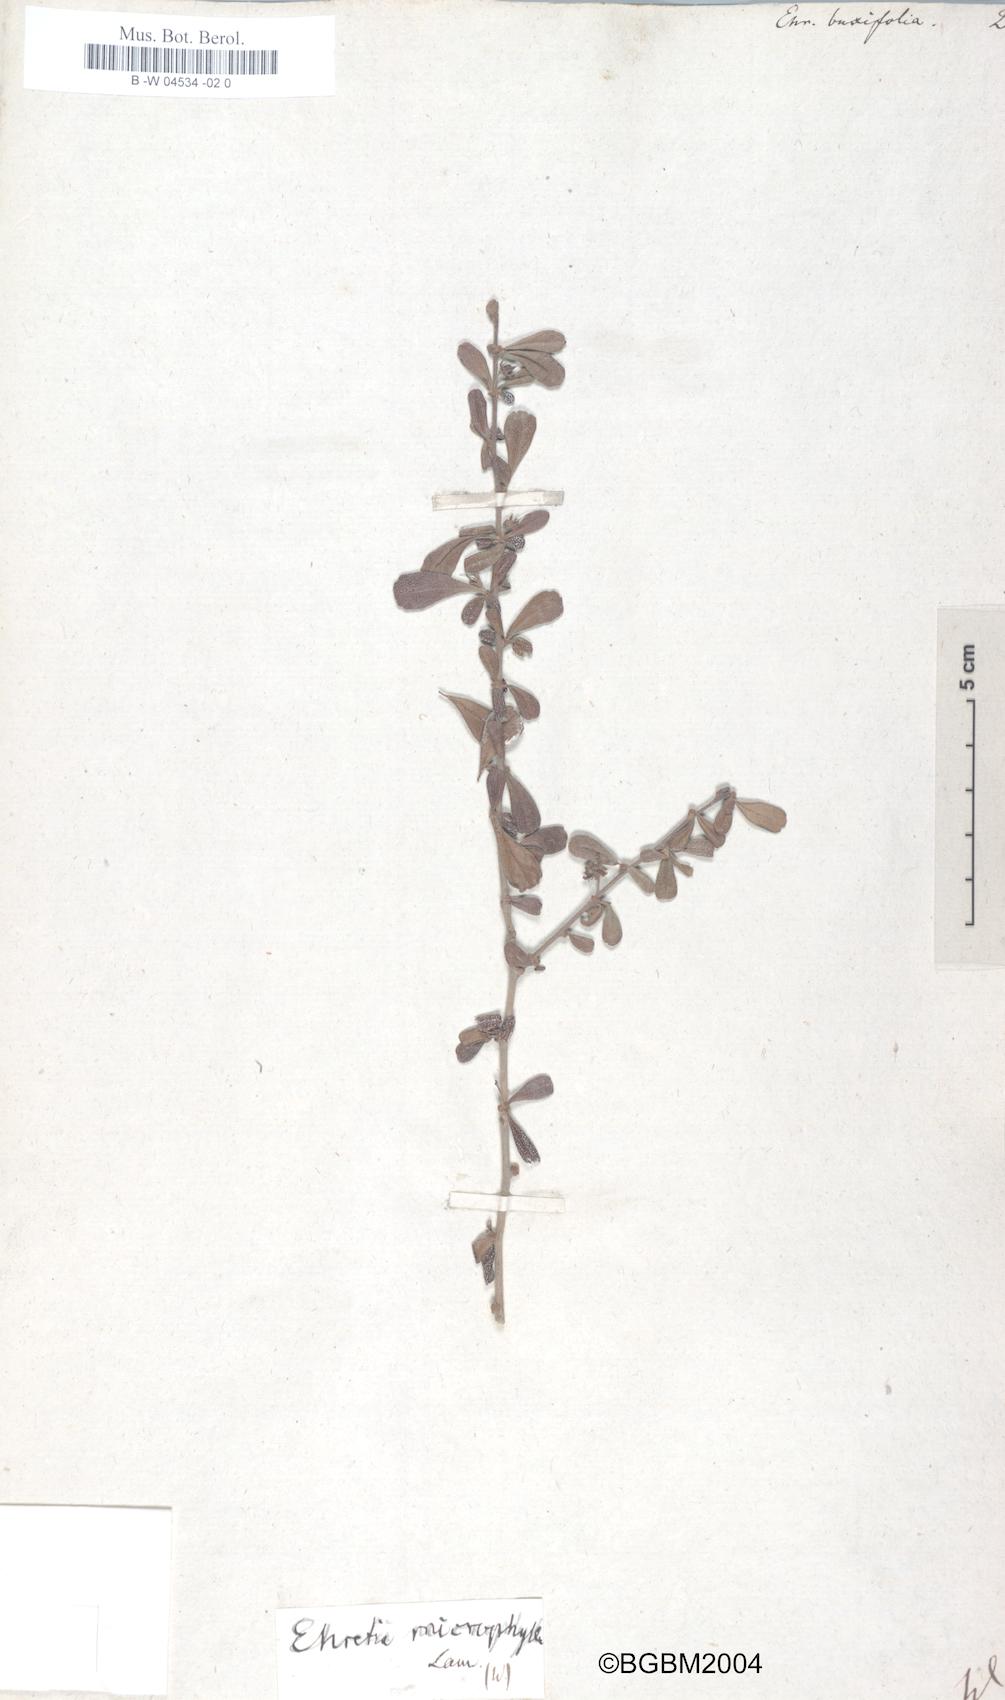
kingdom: Plantae
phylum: Tracheophyta
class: Magnoliopsida
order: Boraginales
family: Ehretiaceae
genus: Ehretia
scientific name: Ehretia microphylla
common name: Fukien-tea
